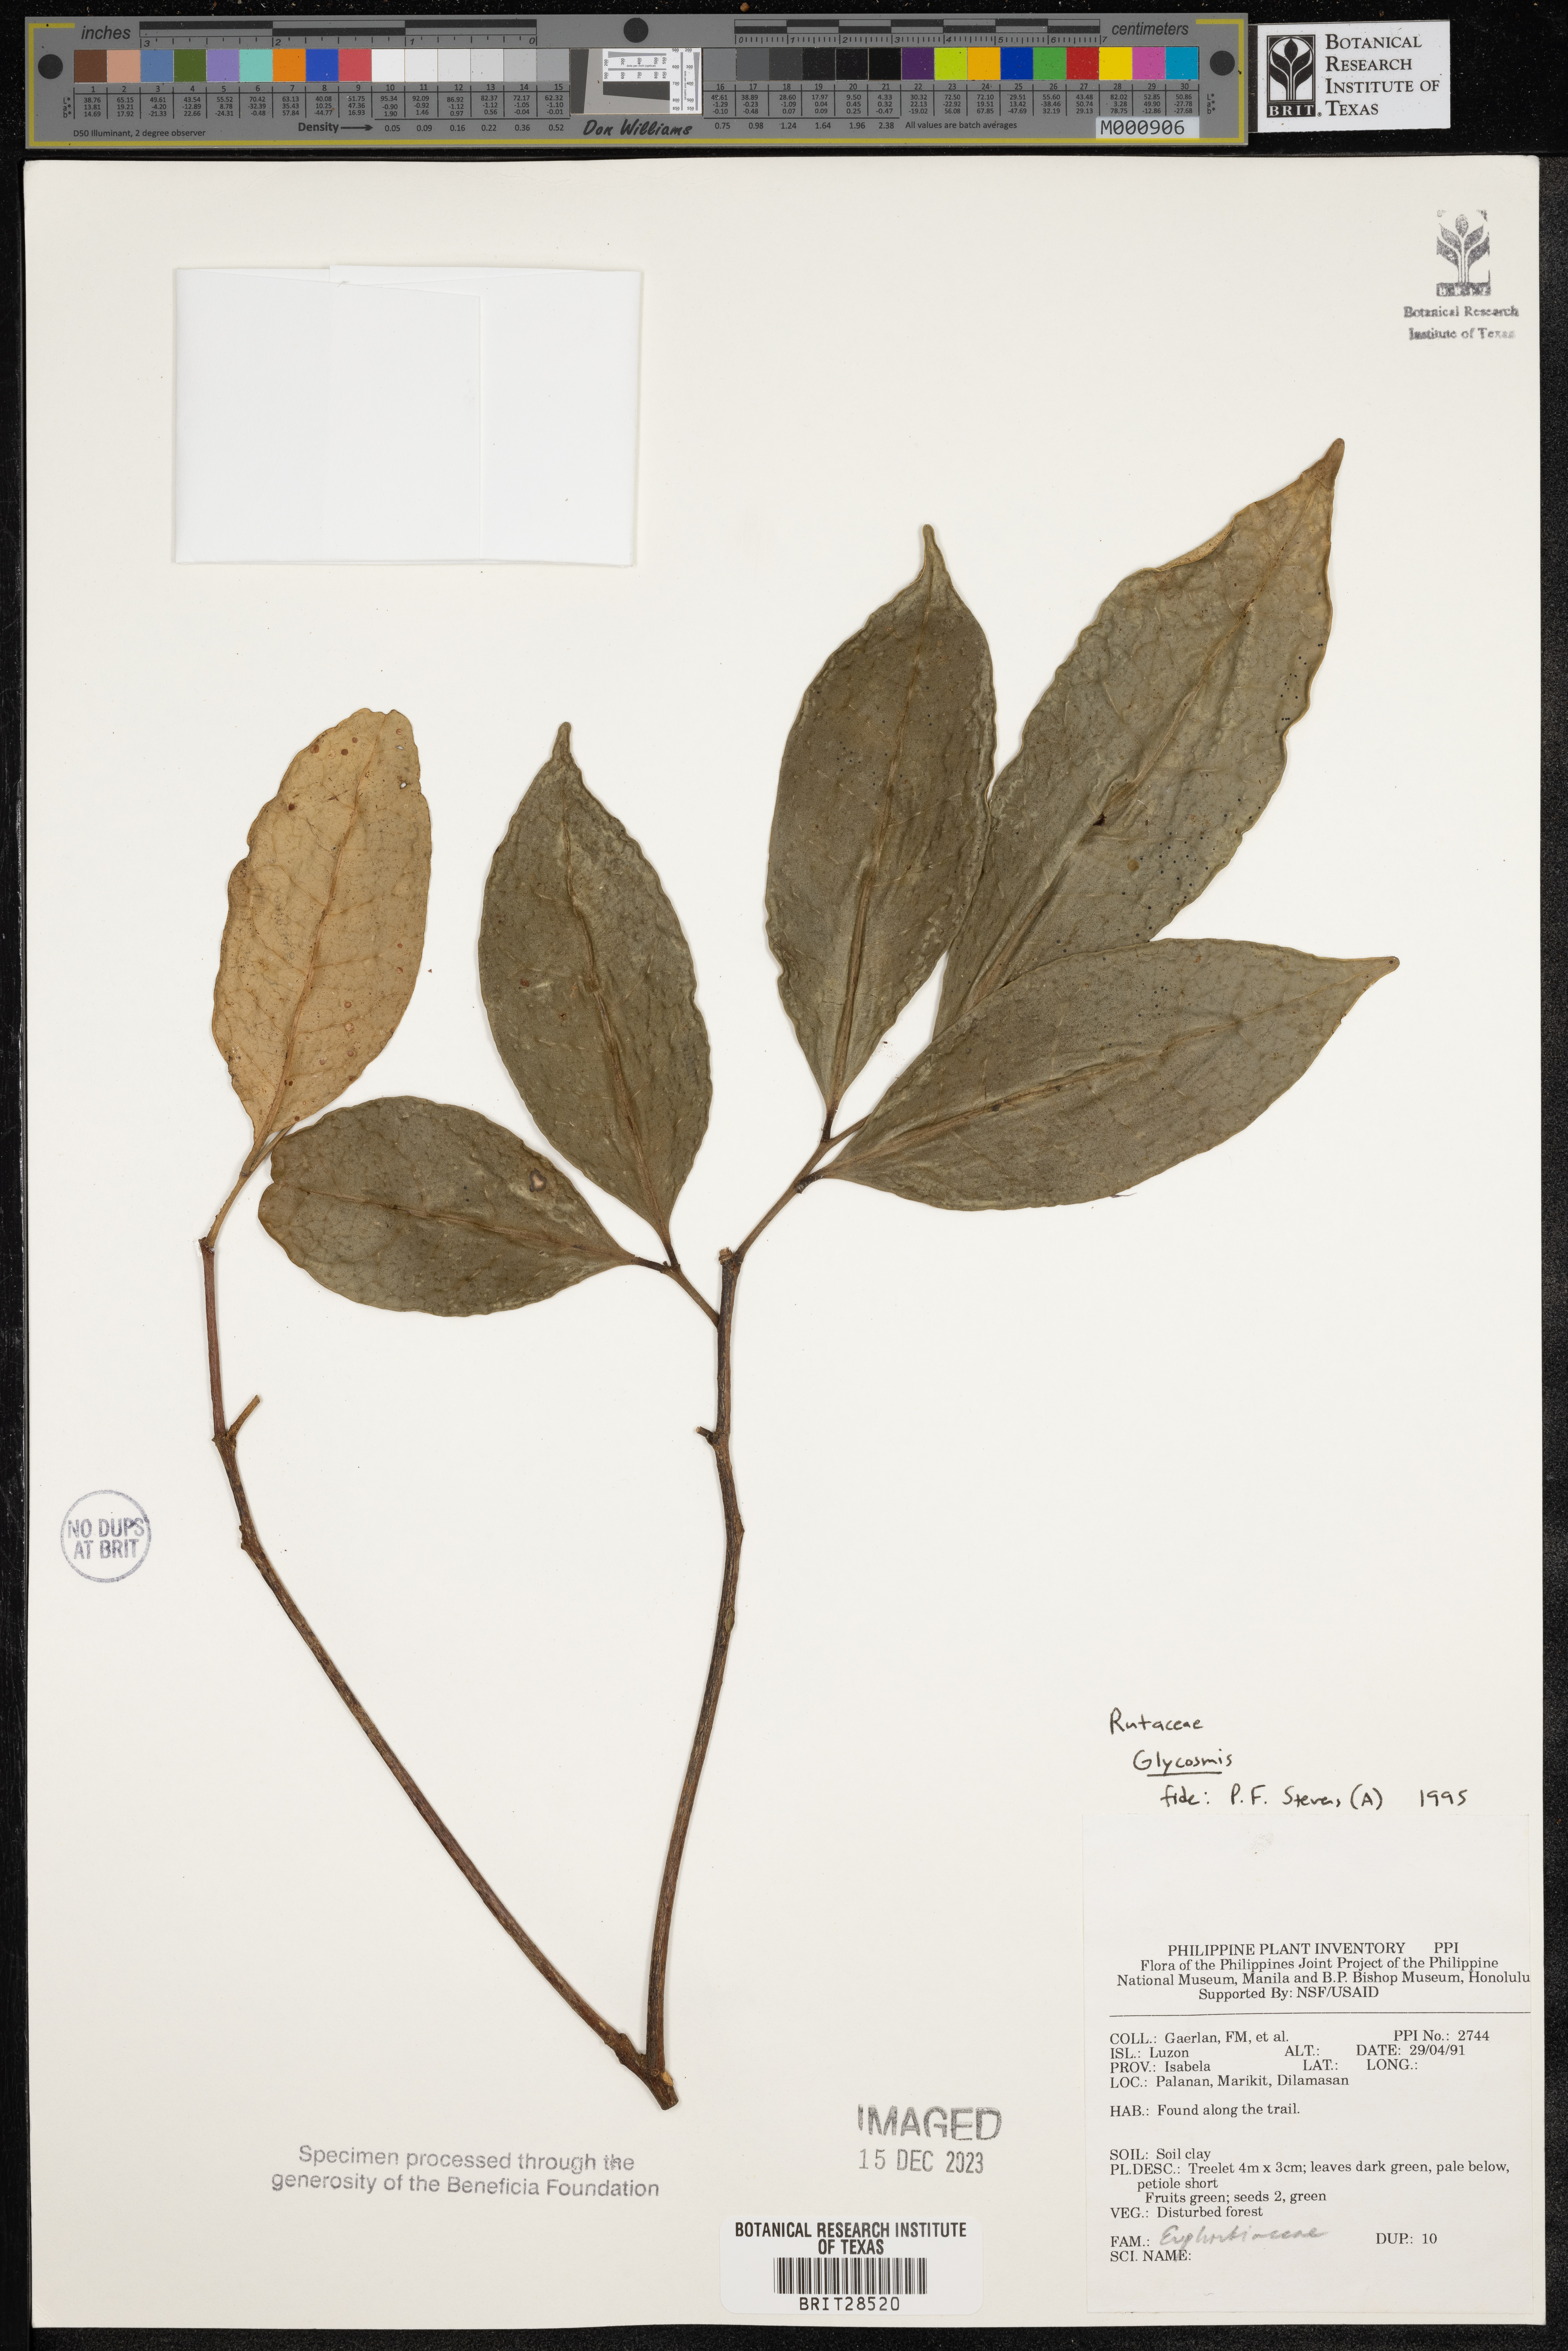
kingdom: Plantae
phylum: Tracheophyta
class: Magnoliopsida
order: Malpighiales
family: Euphorbiaceae
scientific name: Euphorbiaceae
